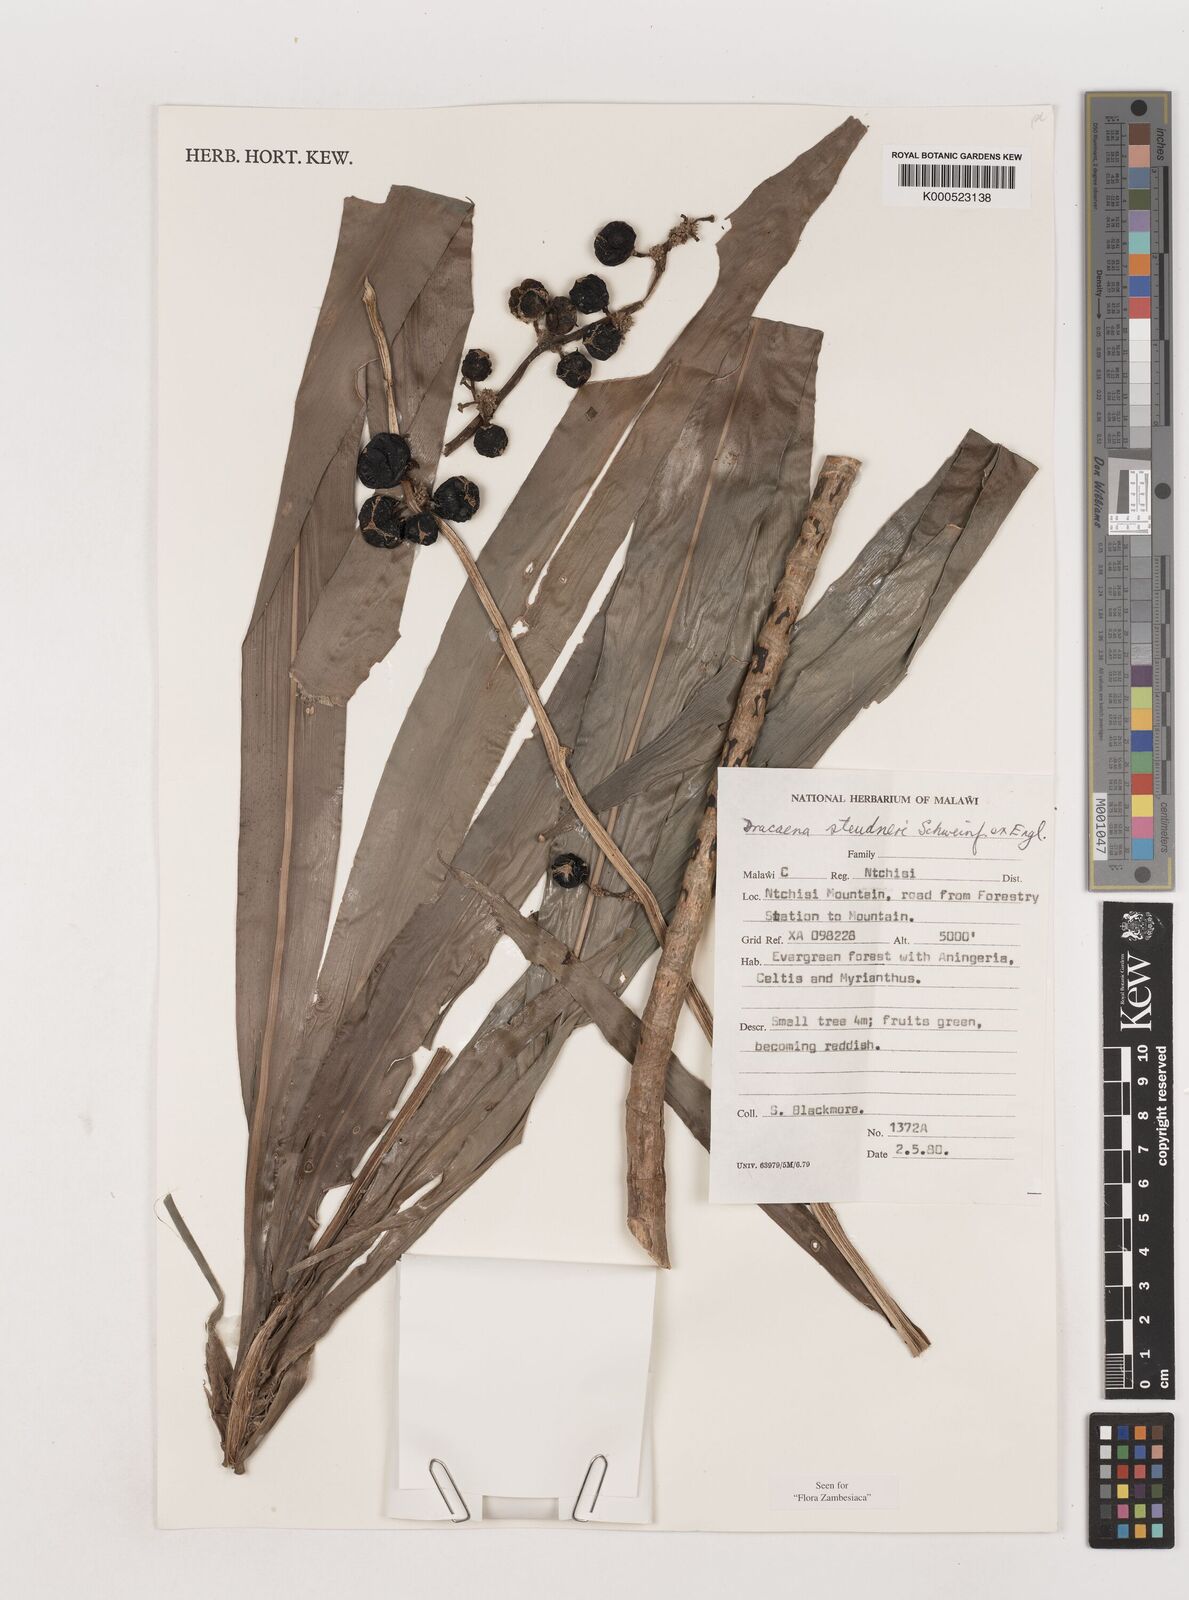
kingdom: Plantae
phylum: Tracheophyta
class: Liliopsida
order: Asparagales
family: Asparagaceae
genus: Dracaena
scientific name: Dracaena steudneri
